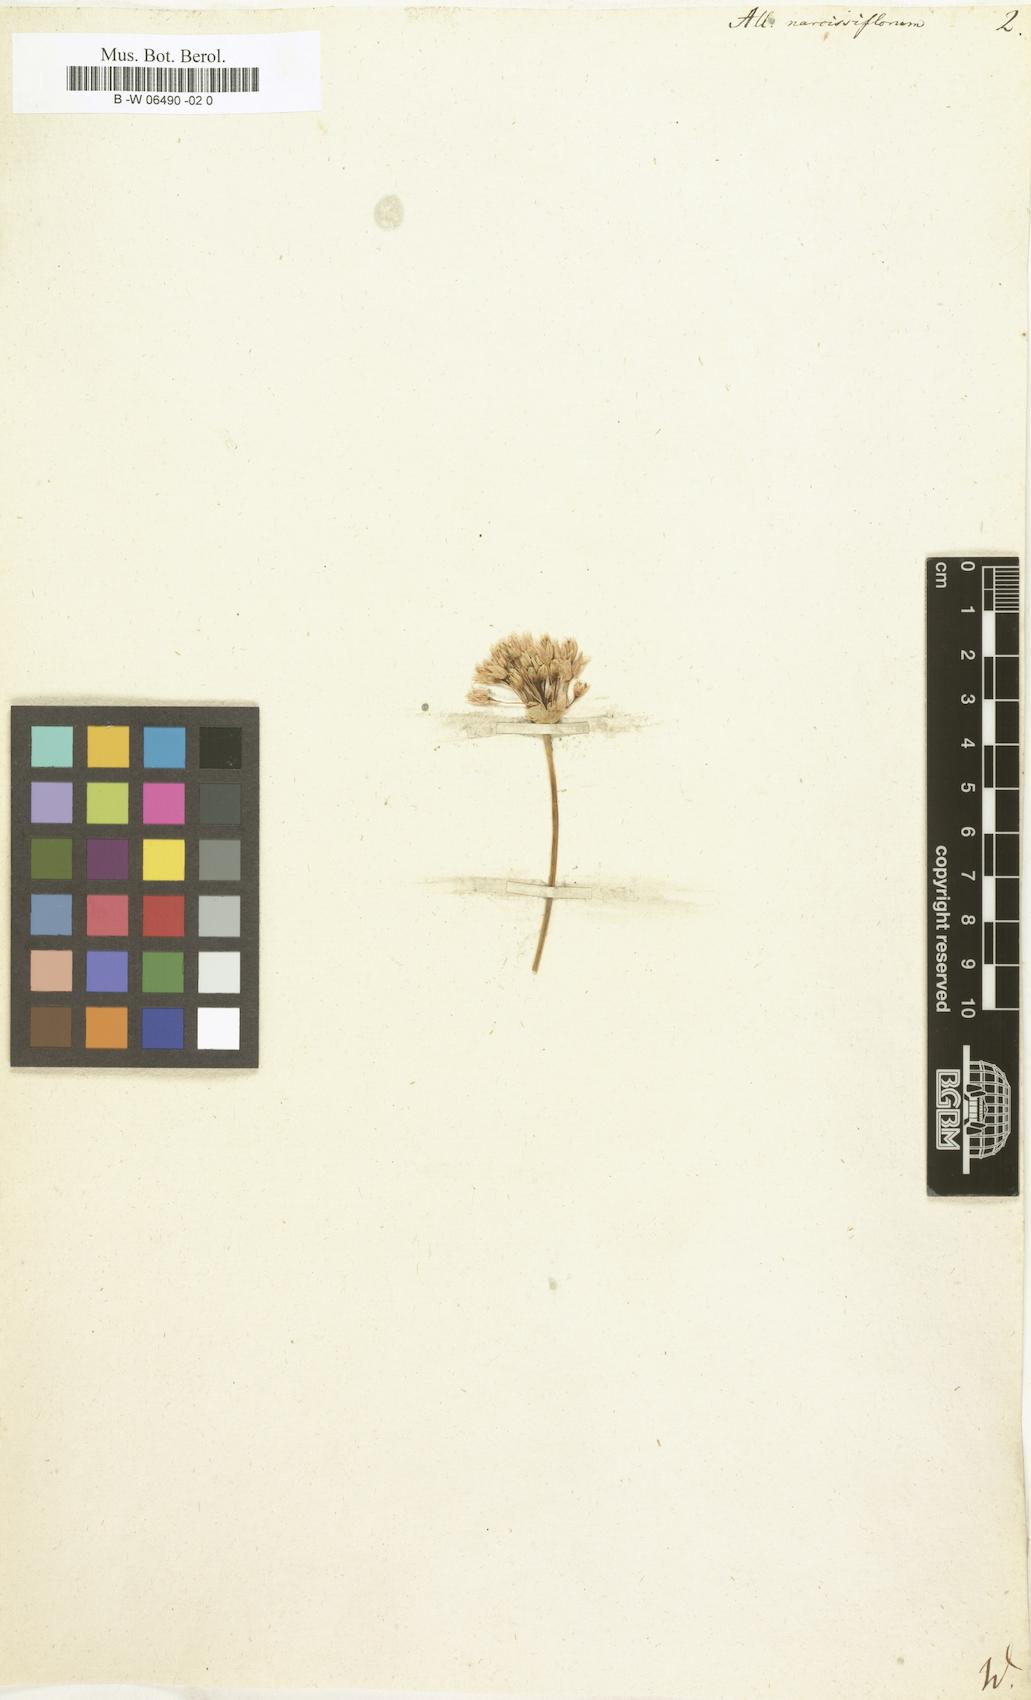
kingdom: Plantae
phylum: Tracheophyta
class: Liliopsida
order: Asparagales
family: Amaryllidaceae
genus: Allium
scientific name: Allium narcissiflorum
